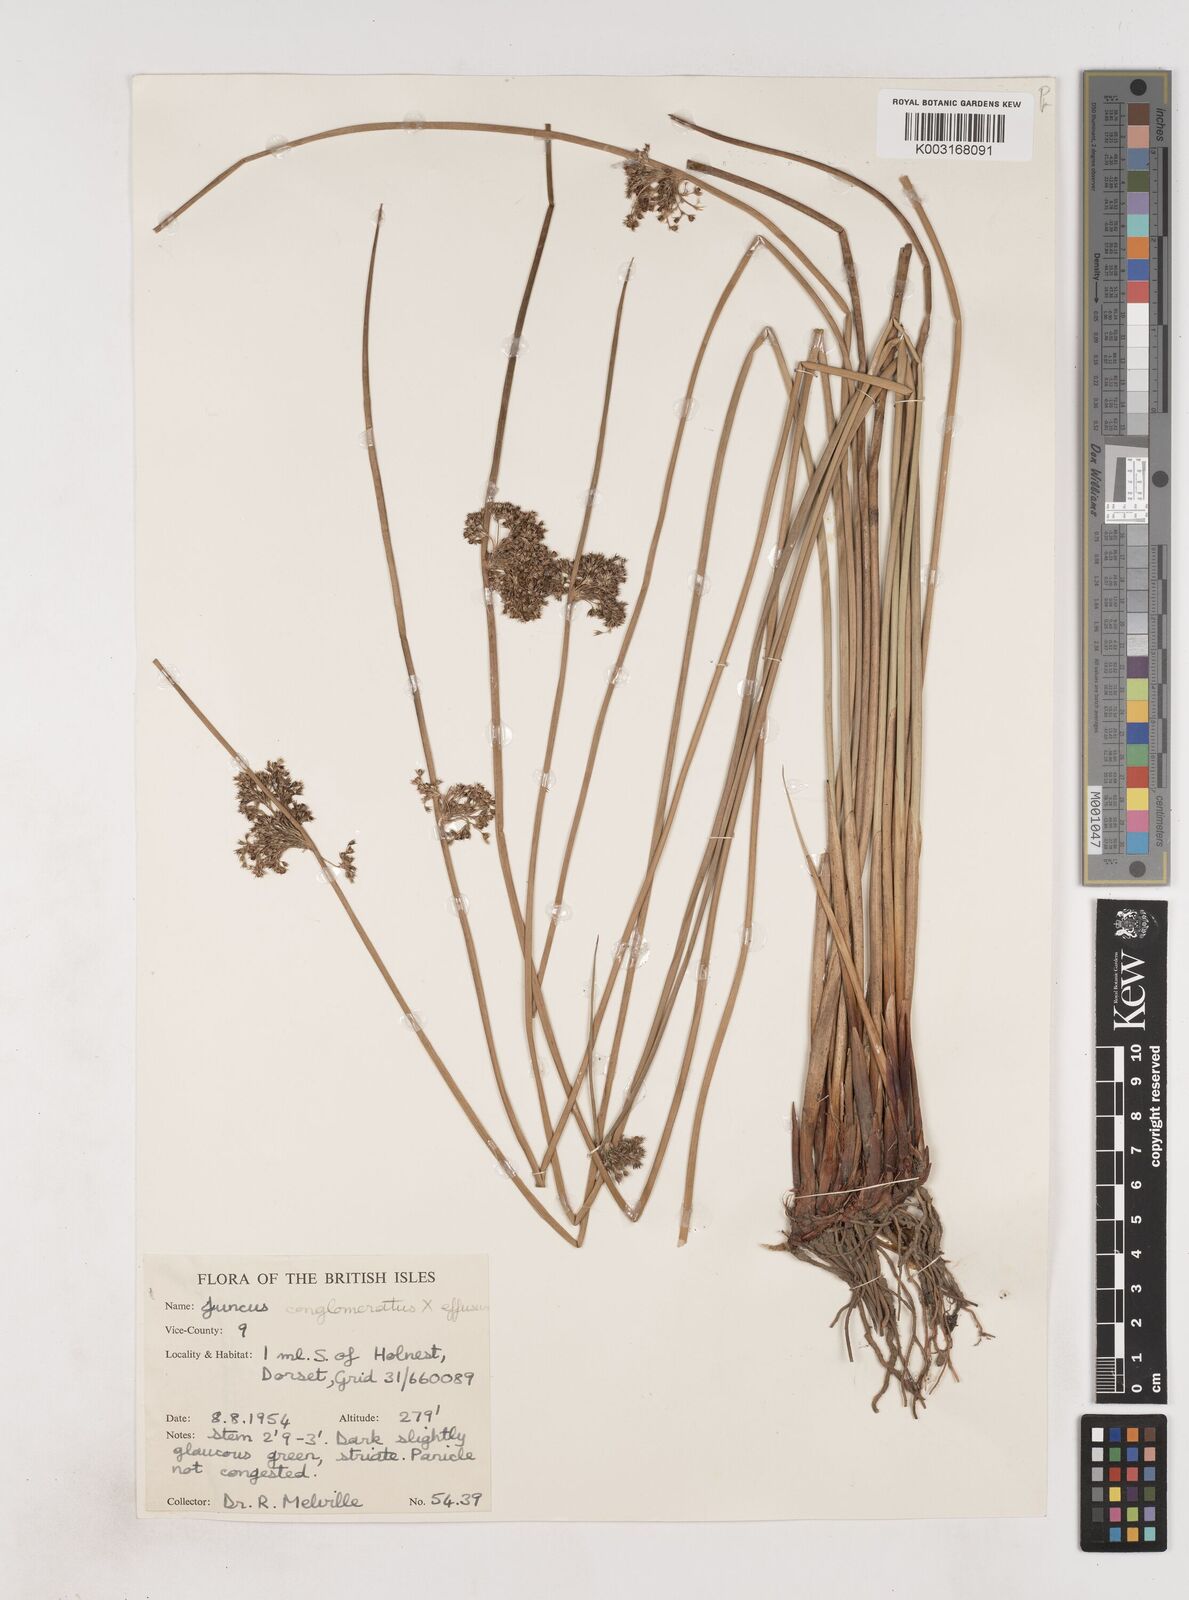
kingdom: Plantae
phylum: Tracheophyta
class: Liliopsida
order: Poales
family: Juncaceae
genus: Juncus
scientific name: Juncus conglomeratus
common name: Compact rush
